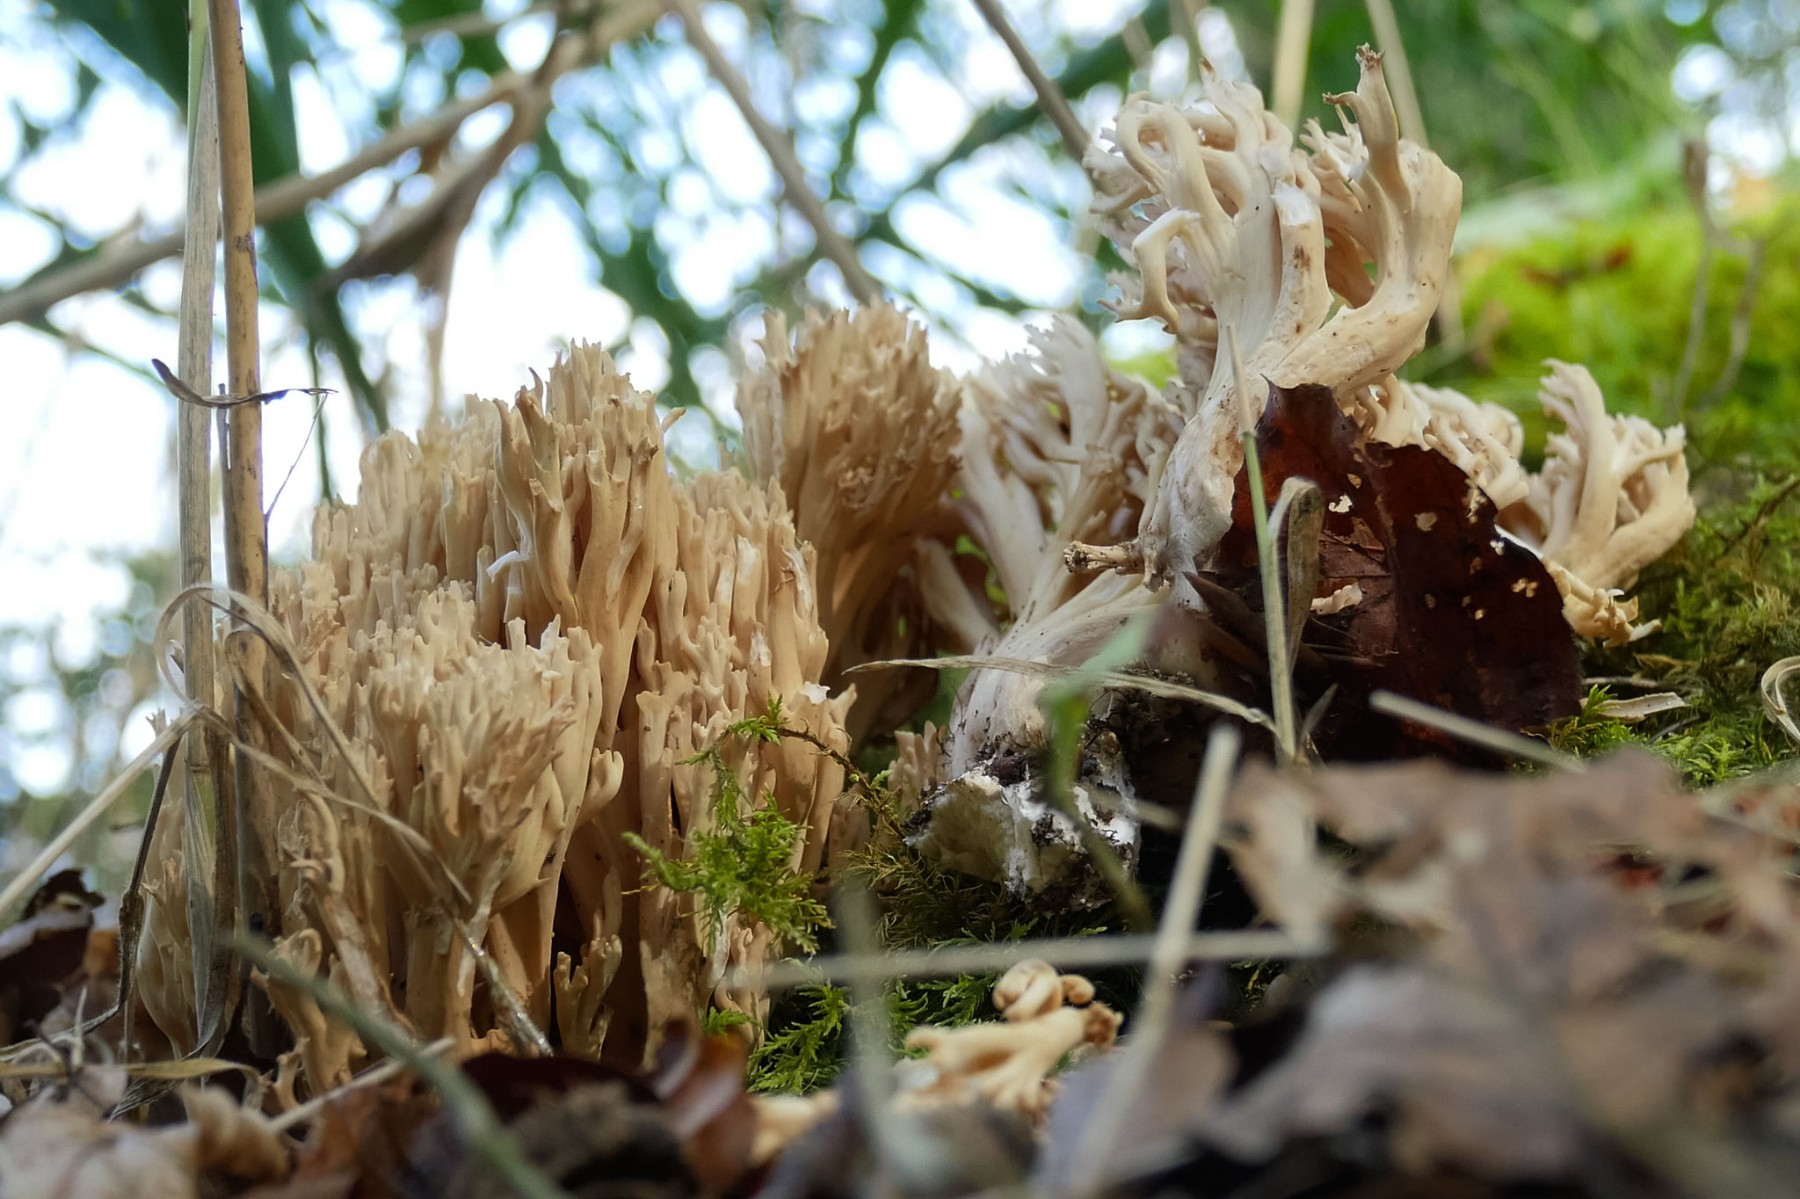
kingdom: Fungi
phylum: Basidiomycota
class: Agaricomycetes
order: Gomphales
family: Gomphaceae
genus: Ramaria
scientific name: Ramaria
